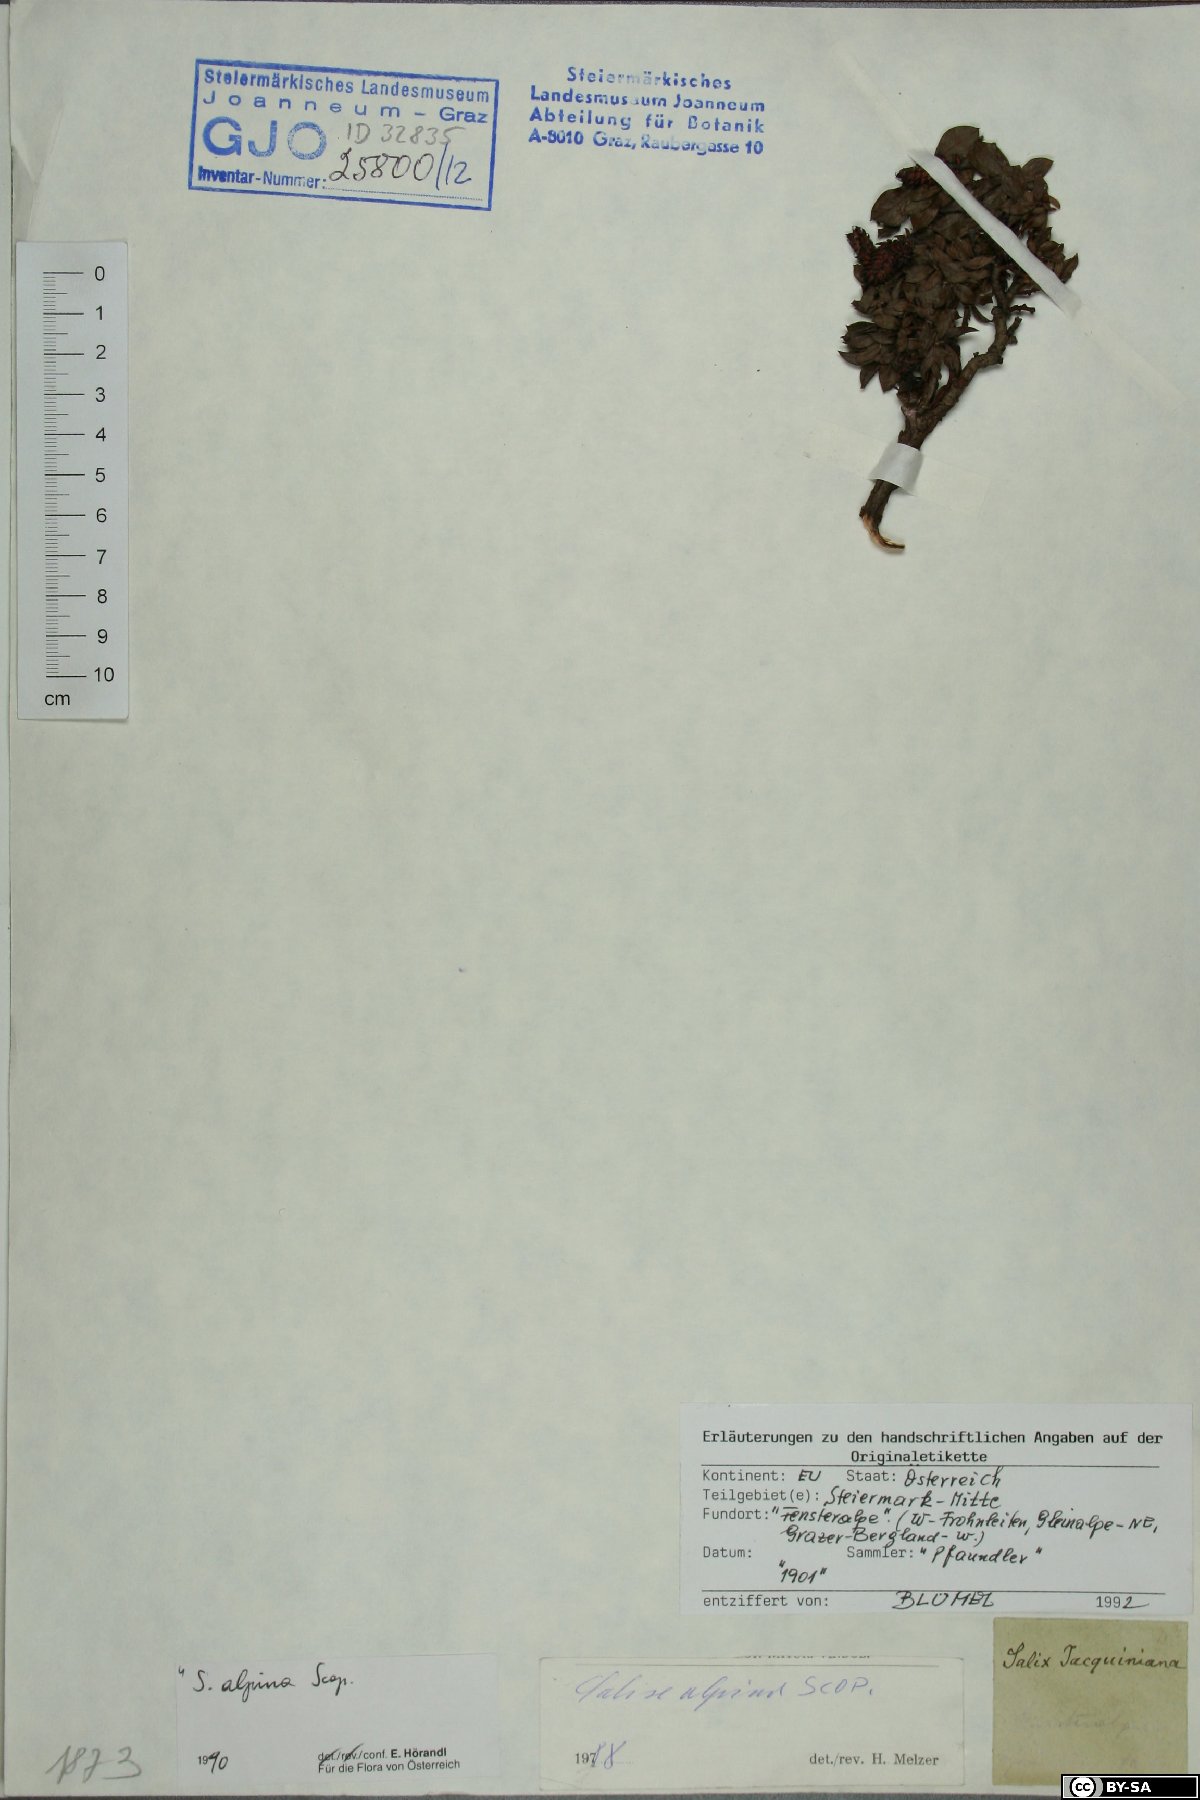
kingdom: Plantae
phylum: Tracheophyta
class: Magnoliopsida
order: Malpighiales
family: Salicaceae
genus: Salix
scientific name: Salix alpina
